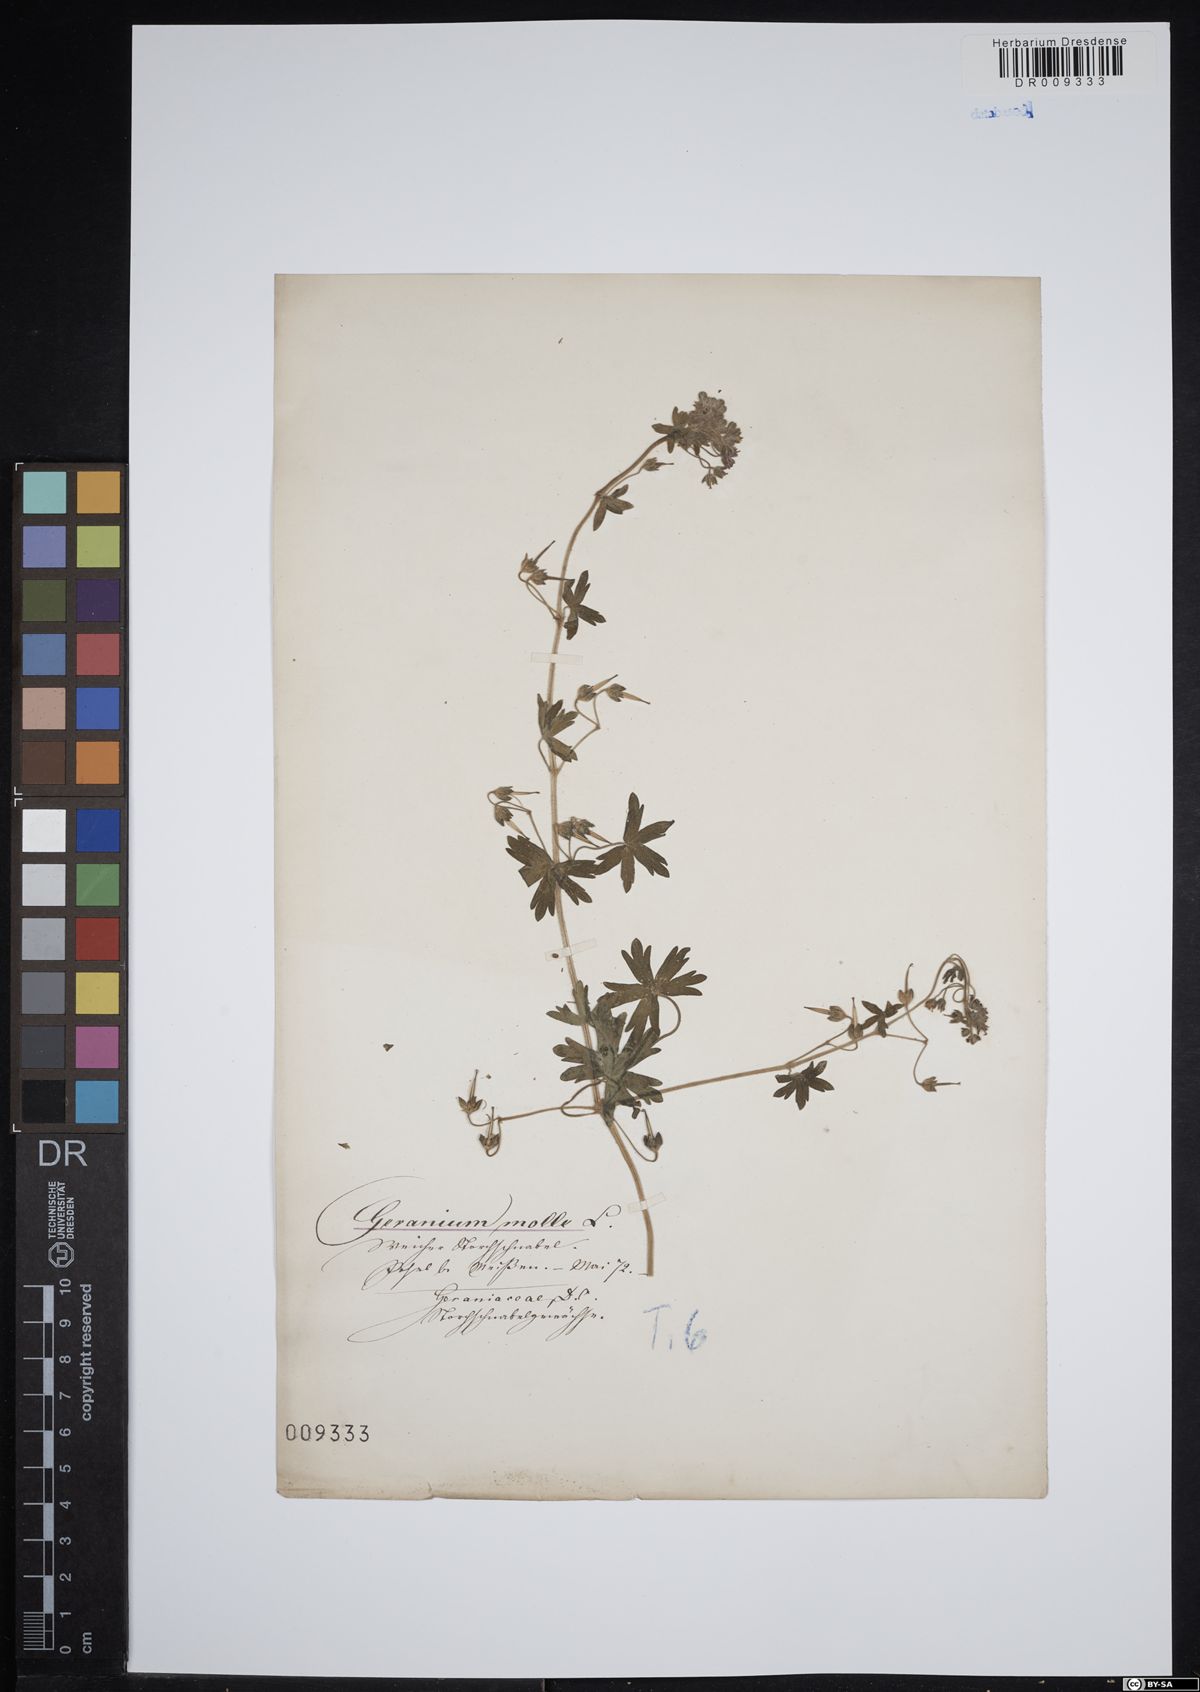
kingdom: Plantae
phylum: Tracheophyta
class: Magnoliopsida
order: Geraniales
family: Geraniaceae
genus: Geranium
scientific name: Geranium molle
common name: Dove's-foot crane's-bill
